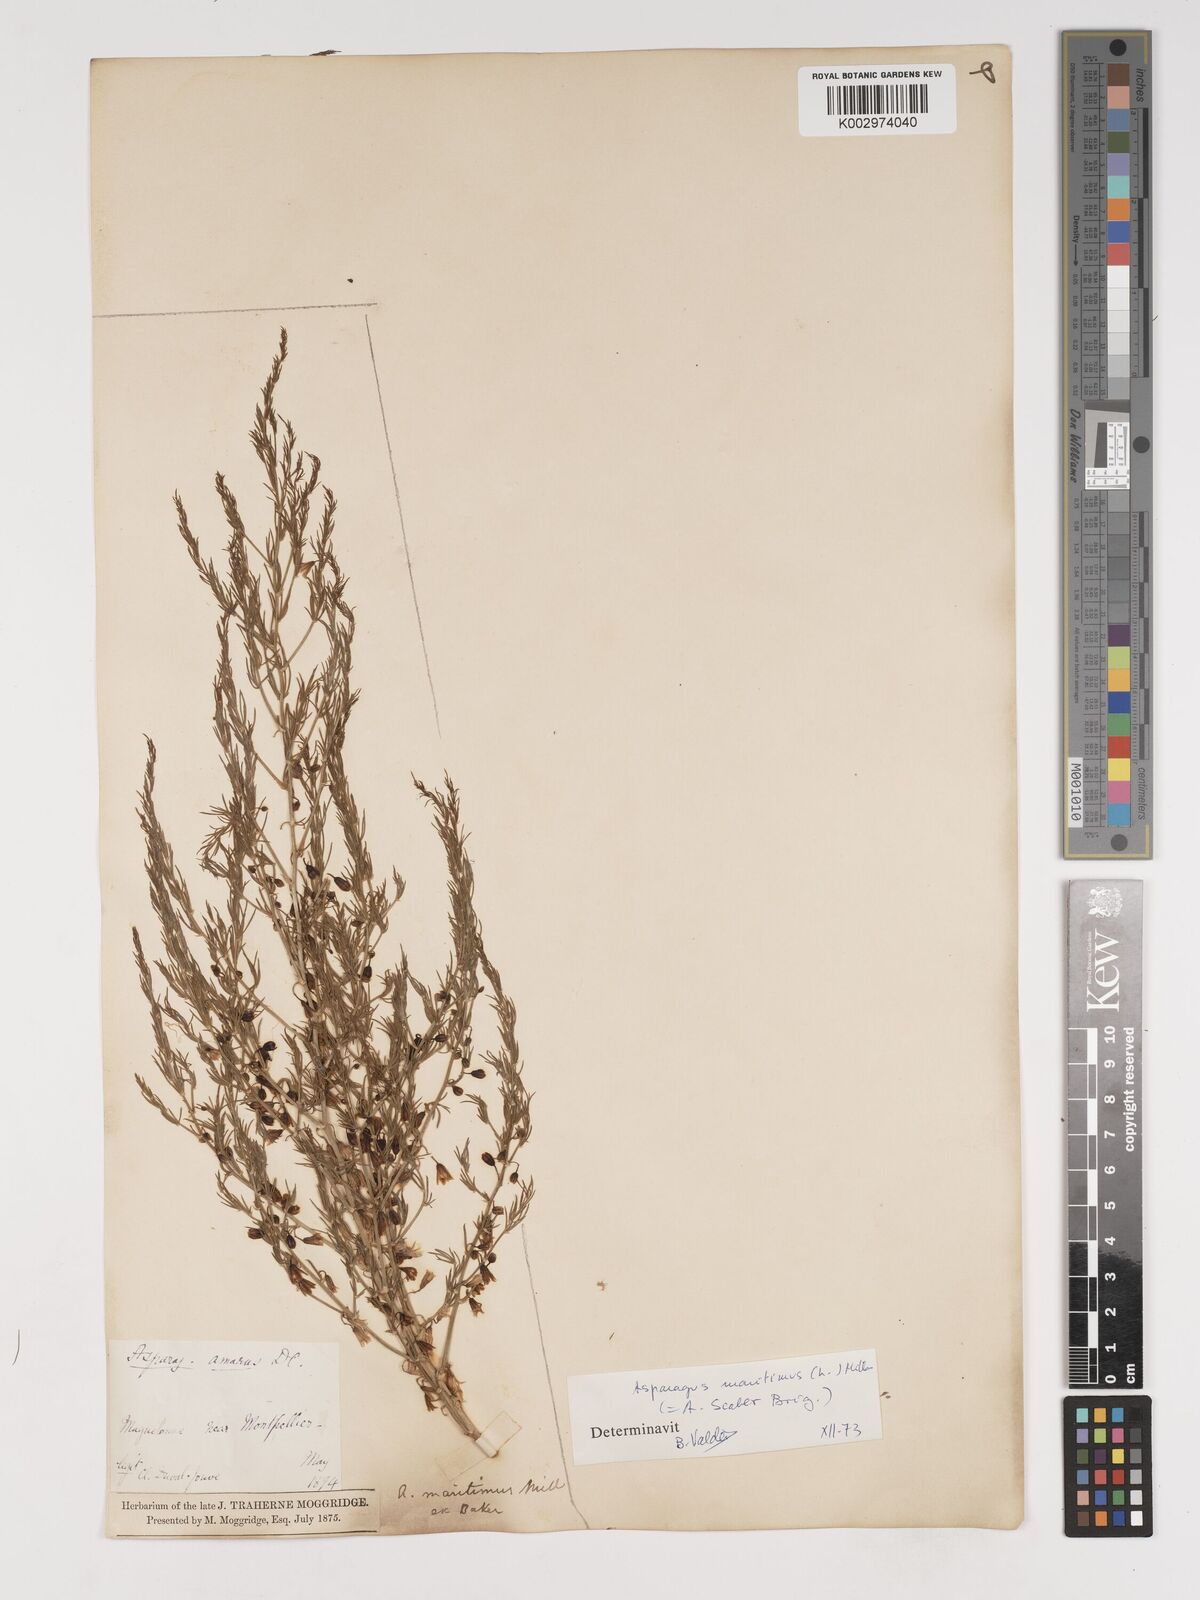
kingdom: Plantae
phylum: Tracheophyta
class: Liliopsida
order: Asparagales
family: Asparagaceae
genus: Asparagus
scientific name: Asparagus maritimus
